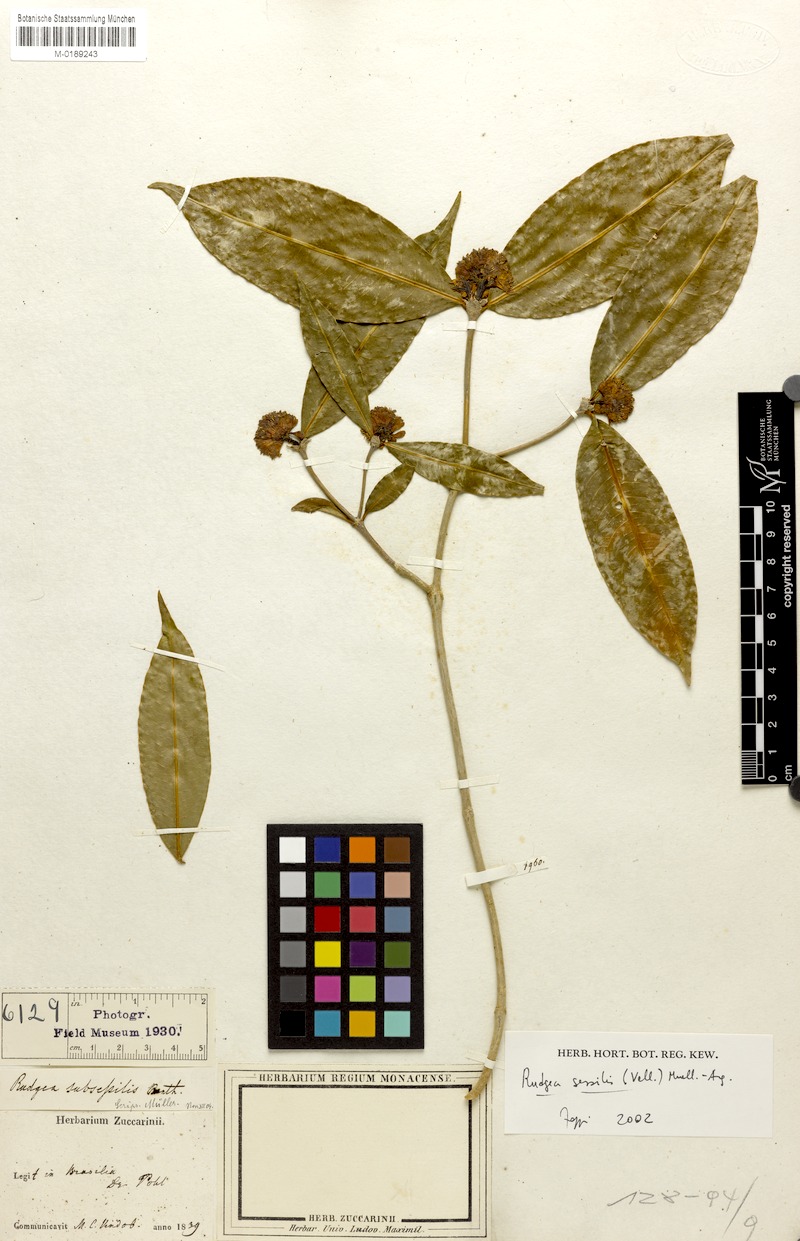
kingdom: Plantae
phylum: Tracheophyta
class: Magnoliopsida
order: Gentianales
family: Rubiaceae
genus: Rudgea
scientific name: Rudgea sessilis
